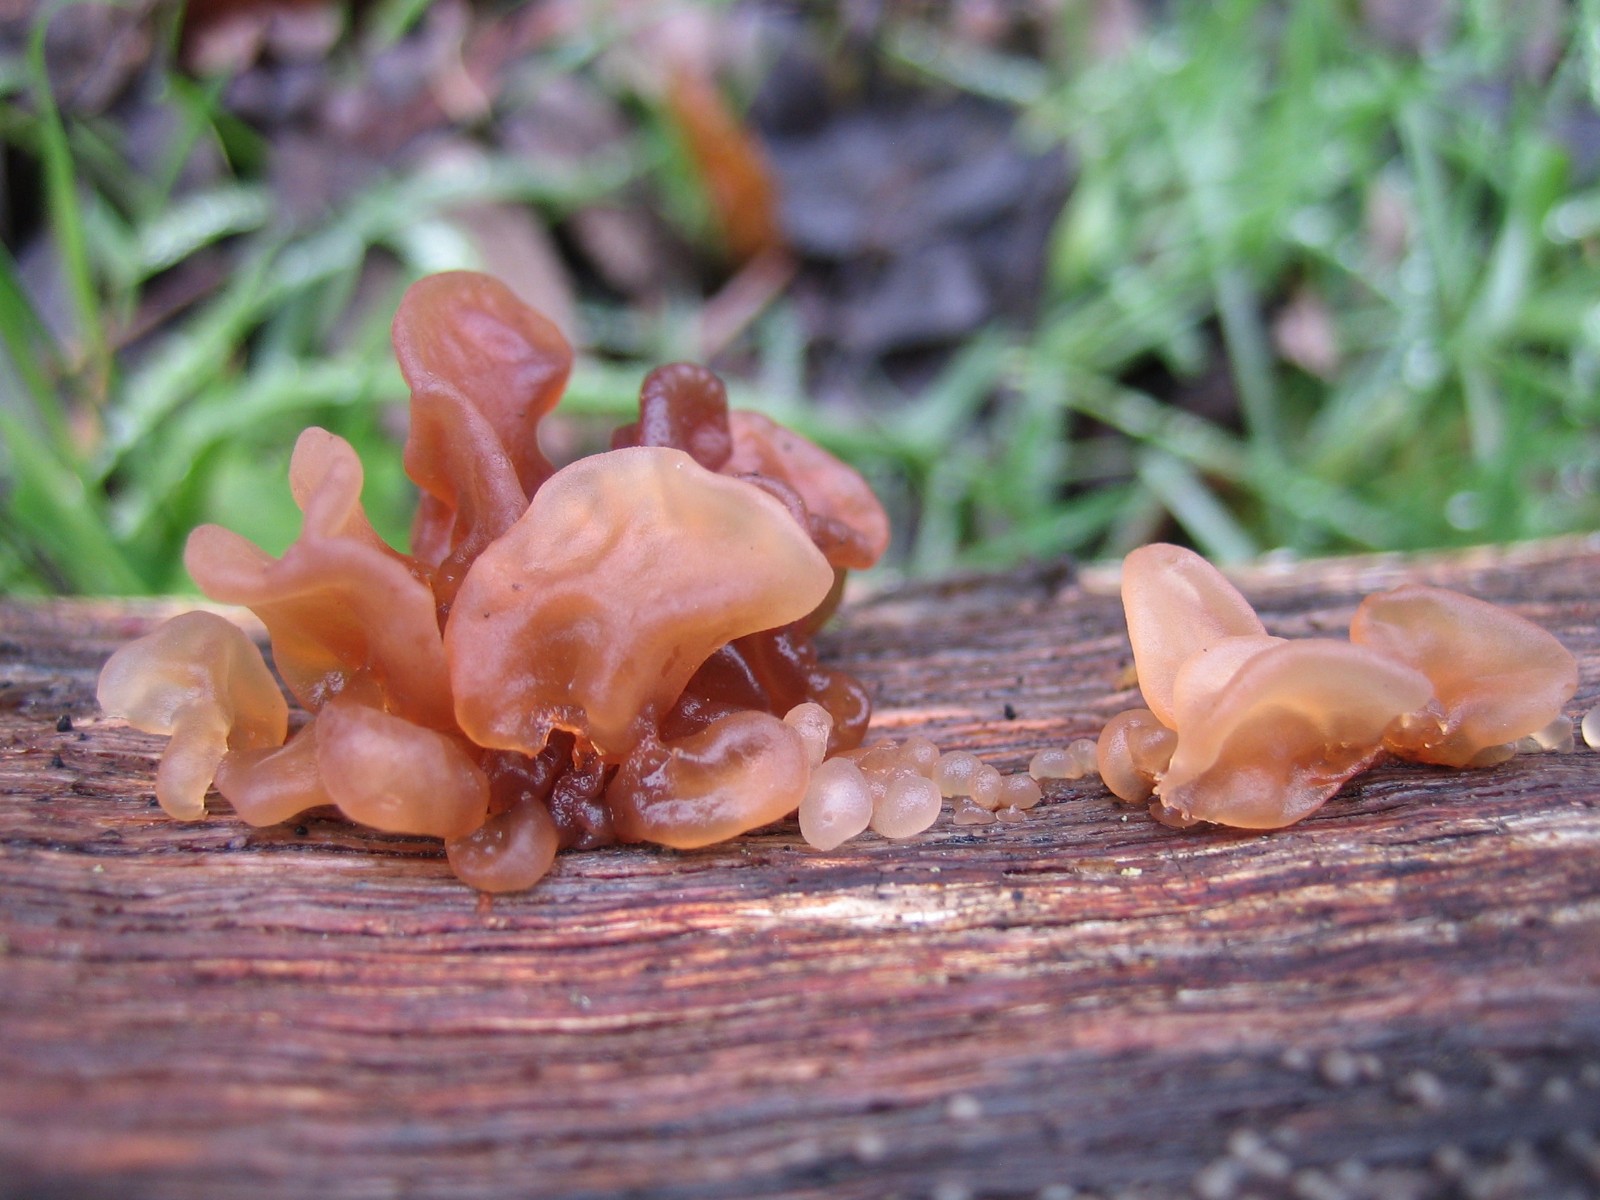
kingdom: Fungi
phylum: Basidiomycota
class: Tremellomycetes
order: Tremellales
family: Tremellaceae
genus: Phaeotremella
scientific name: Phaeotremella frondosa
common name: kæmpe-bævresvamp
